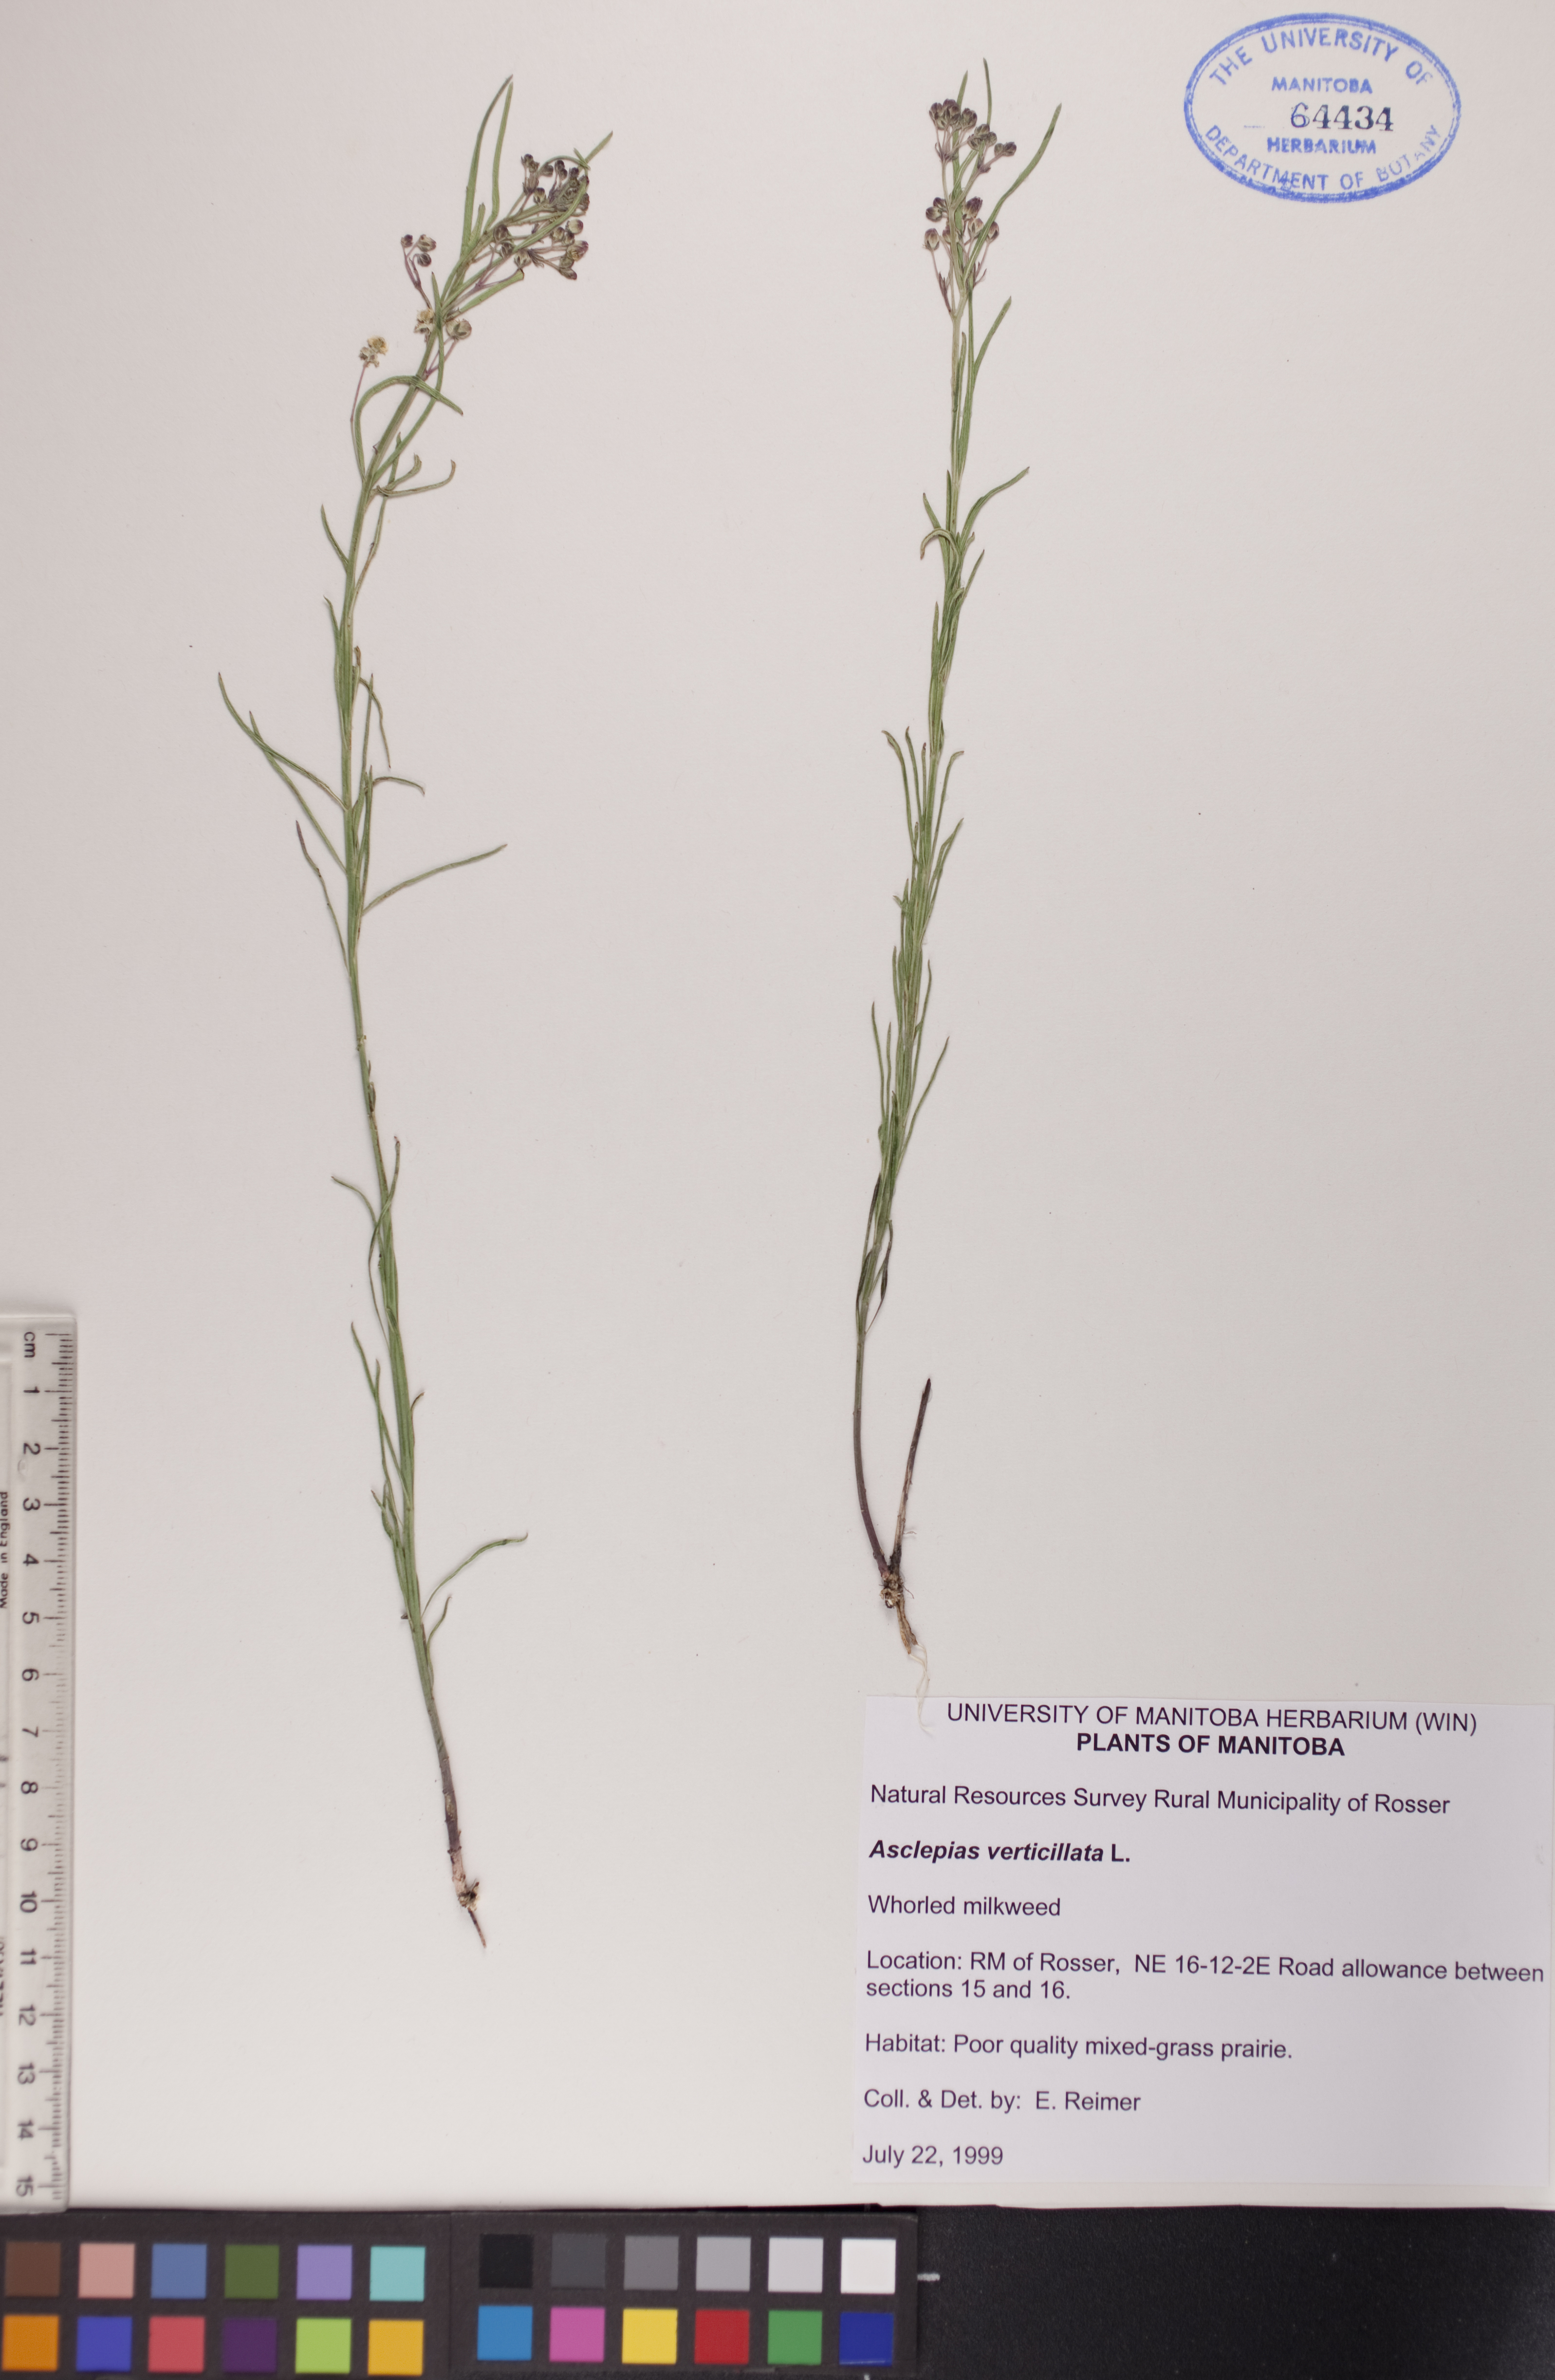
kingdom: Plantae
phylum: Tracheophyta
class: Magnoliopsida
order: Gentianales
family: Apocynaceae
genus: Asclepias
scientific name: Asclepias verticillata
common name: Eastern whorled milkweed
